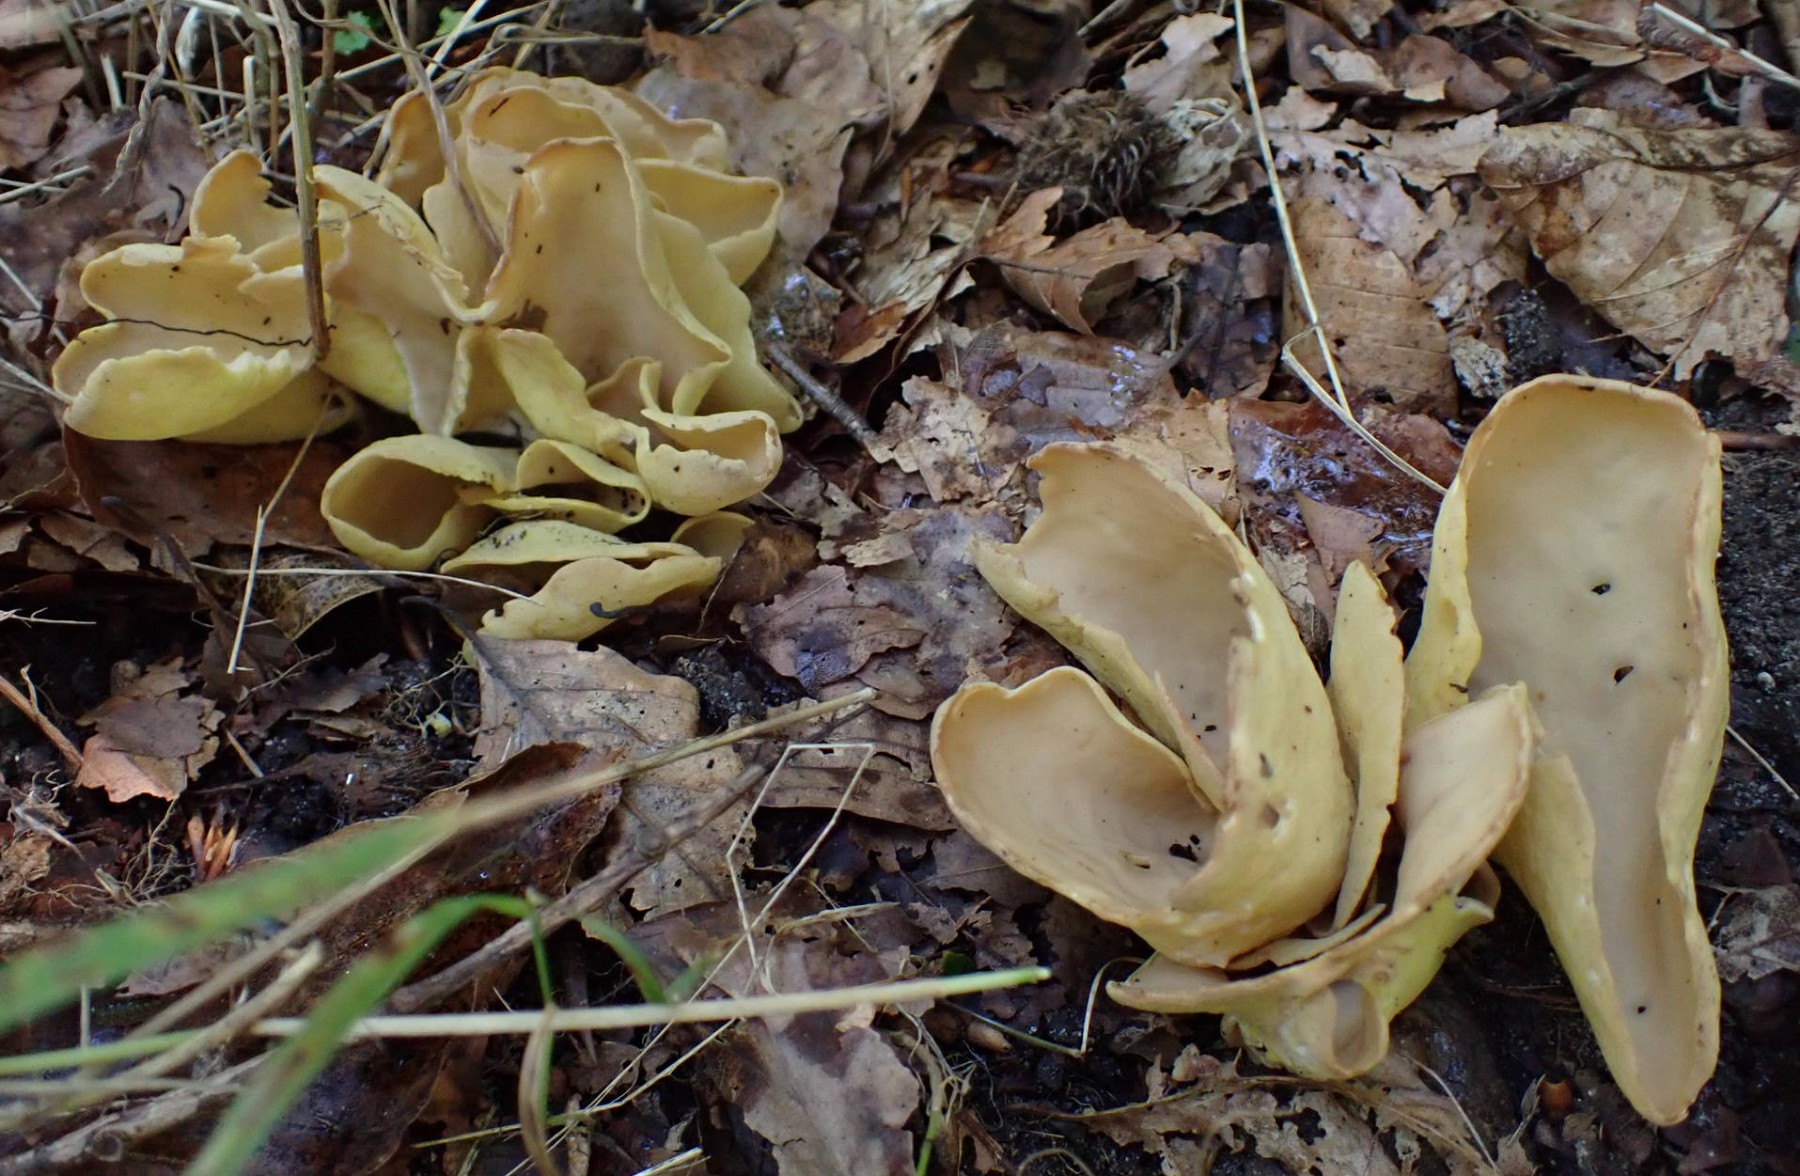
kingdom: Fungi
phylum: Ascomycota
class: Pezizomycetes
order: Pezizales
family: Otideaceae
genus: Otidea
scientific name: Otidea cantharella
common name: citrongul ørebæger
